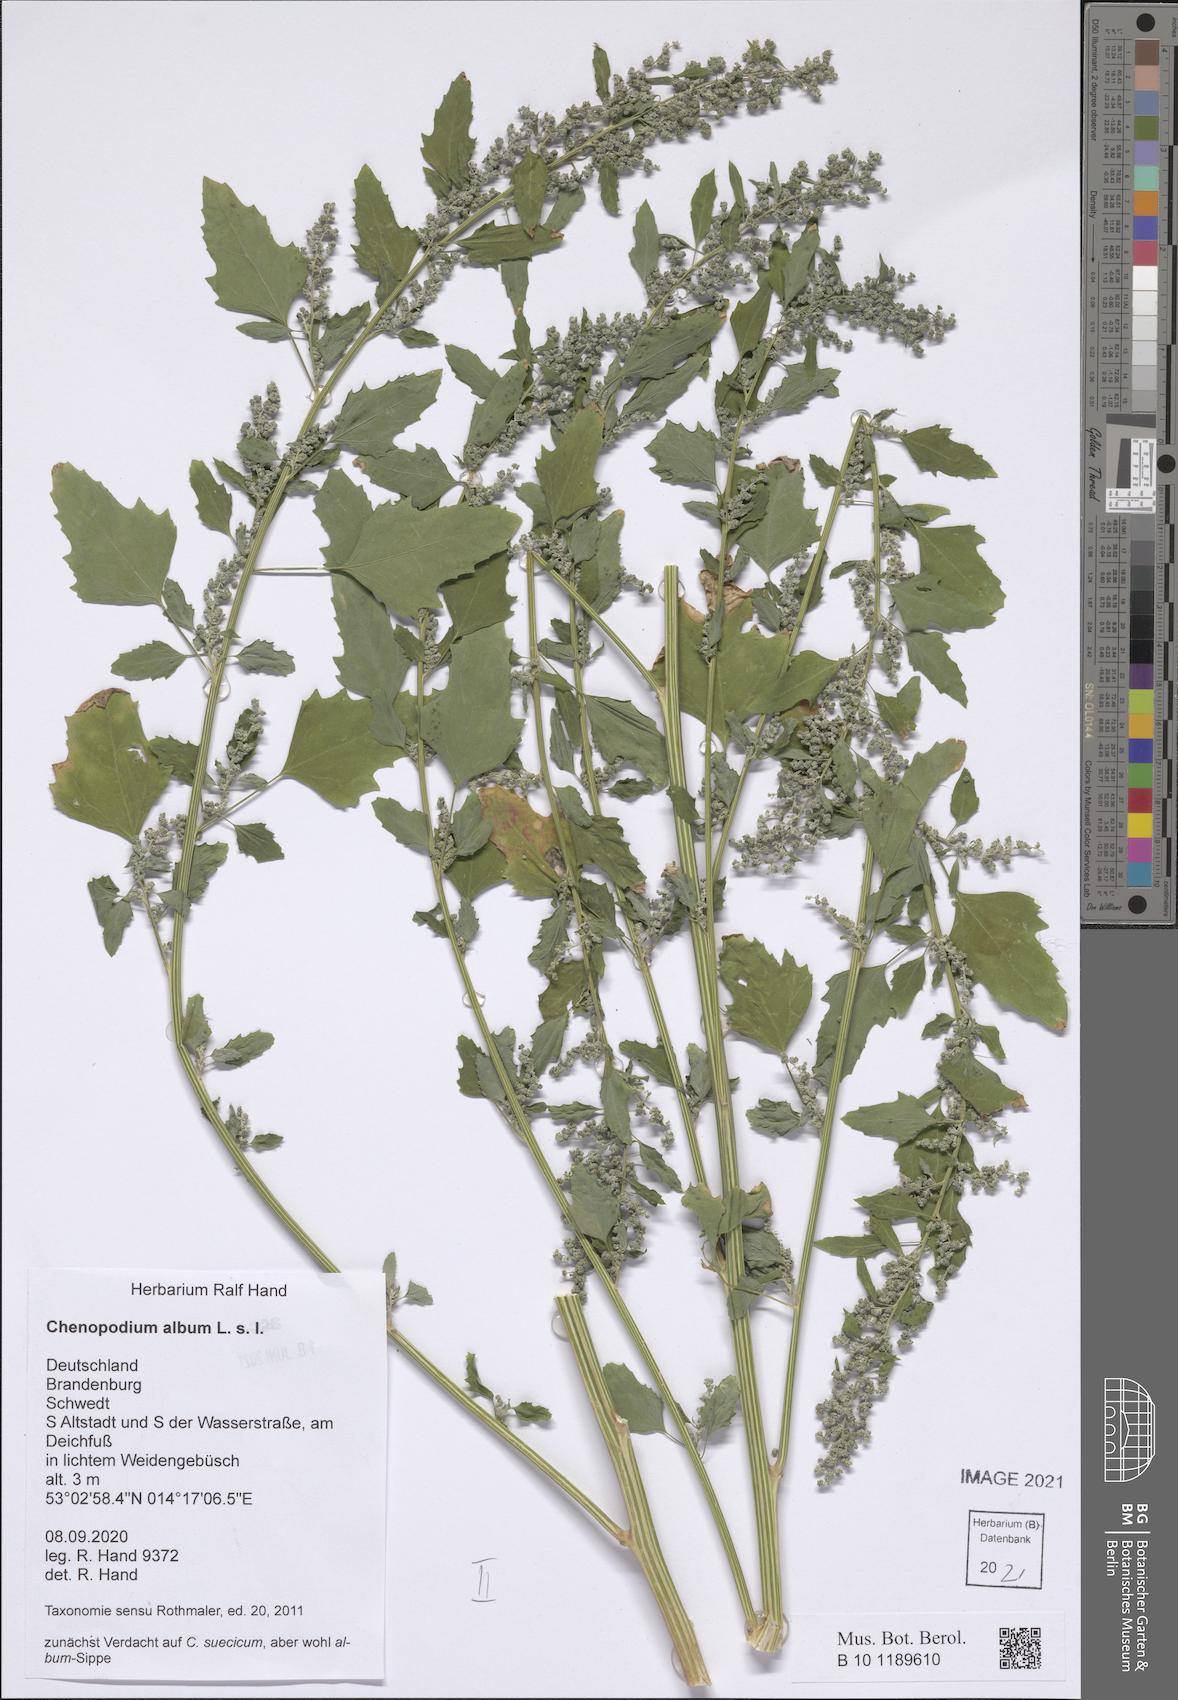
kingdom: Plantae
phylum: Tracheophyta
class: Magnoliopsida
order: Caryophyllales
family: Amaranthaceae
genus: Chenopodium
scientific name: Chenopodium album
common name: Fat-hen
